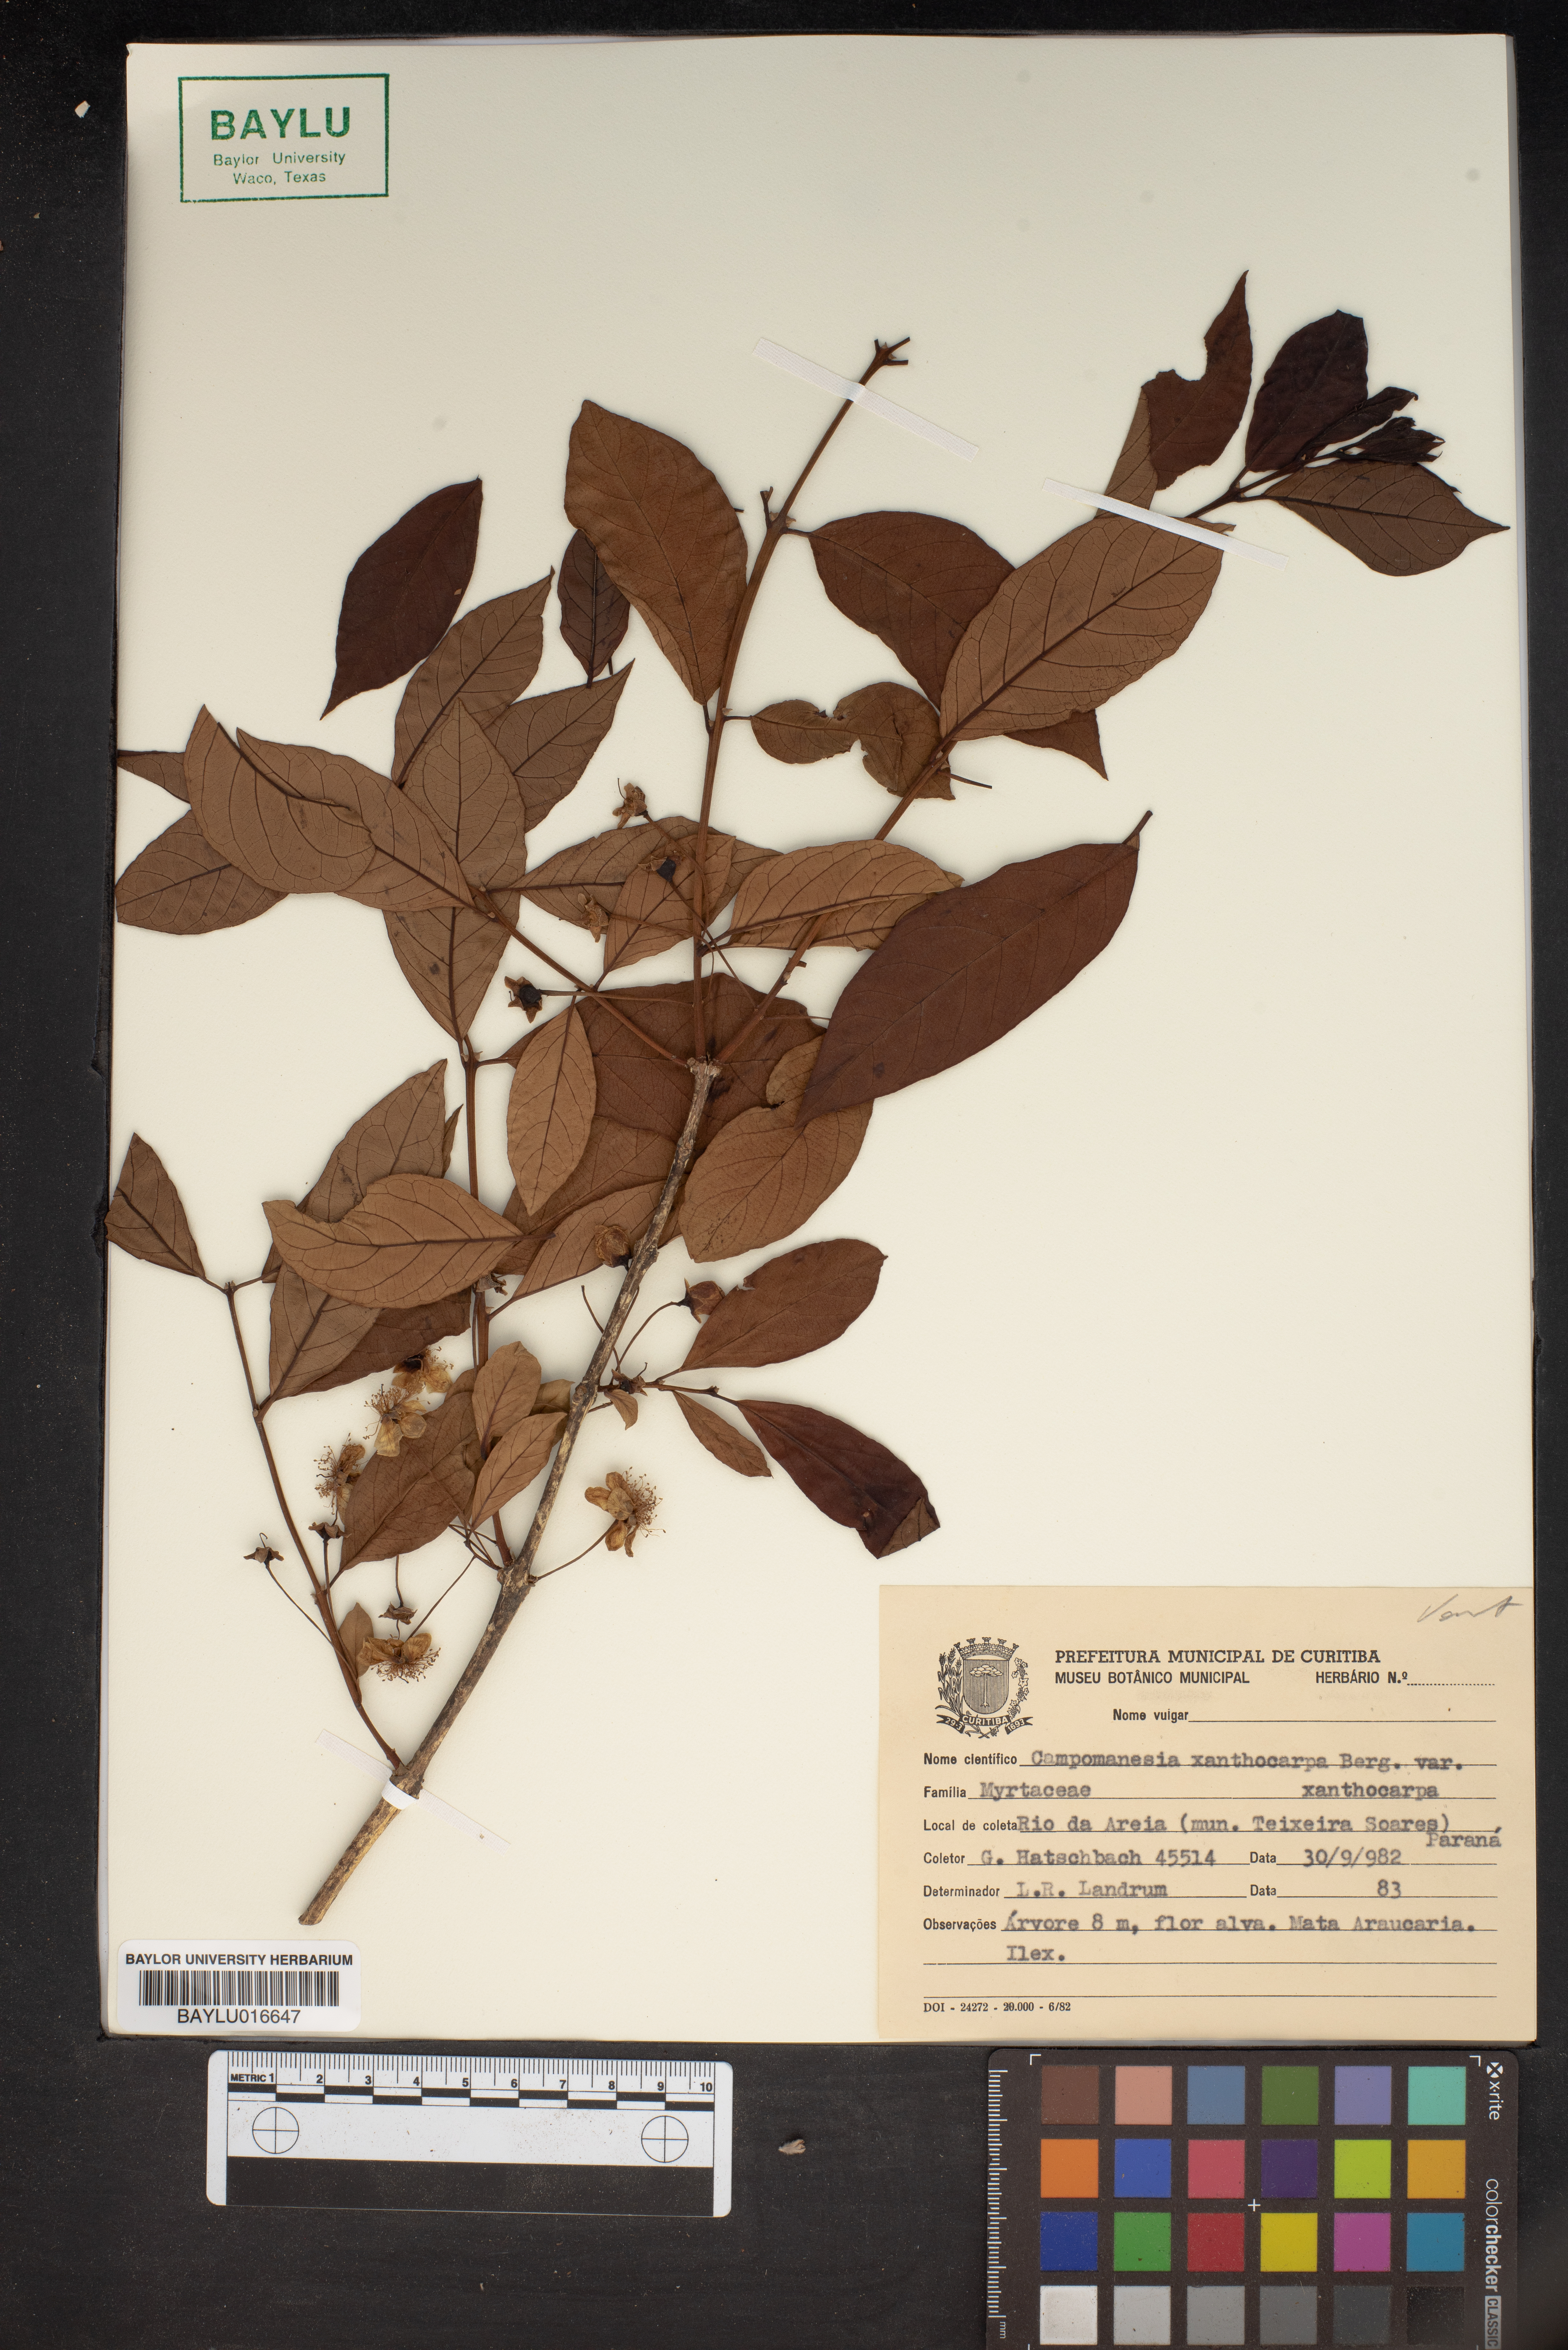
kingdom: Plantae
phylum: Tracheophyta
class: Magnoliopsida
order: Myrtales
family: Myrtaceae
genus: Campomanesia
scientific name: Campomanesia xanthocarpa
